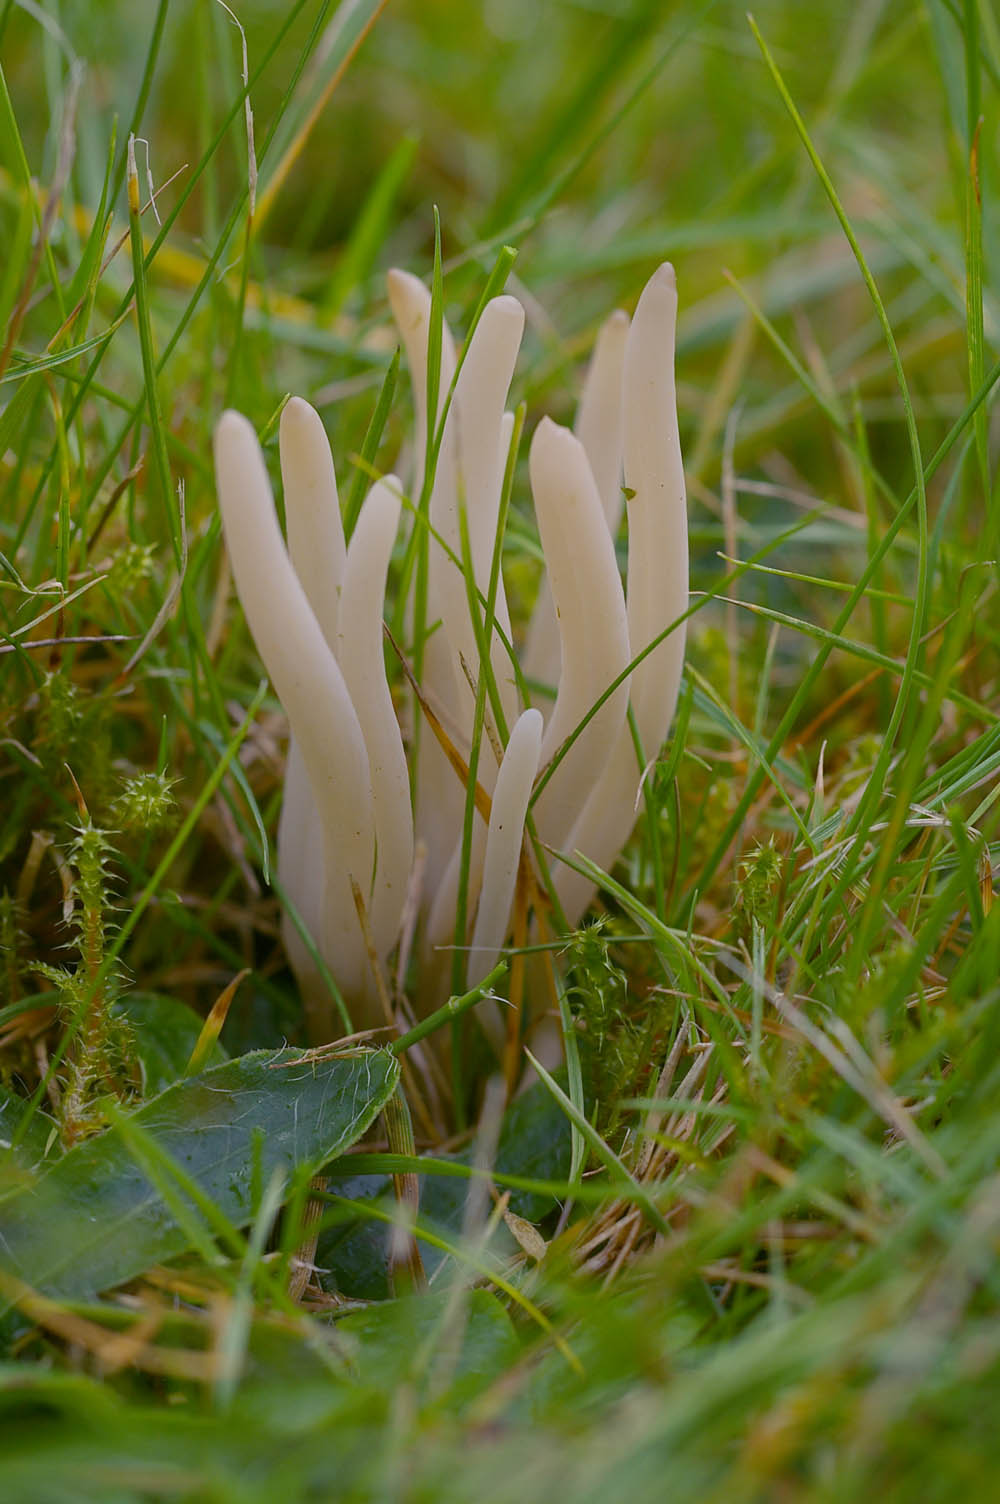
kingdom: Fungi
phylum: Basidiomycota
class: Agaricomycetes
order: Agaricales
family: Clavariaceae
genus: Clavaria
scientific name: Clavaria falcata
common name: hvid køllesvamp
